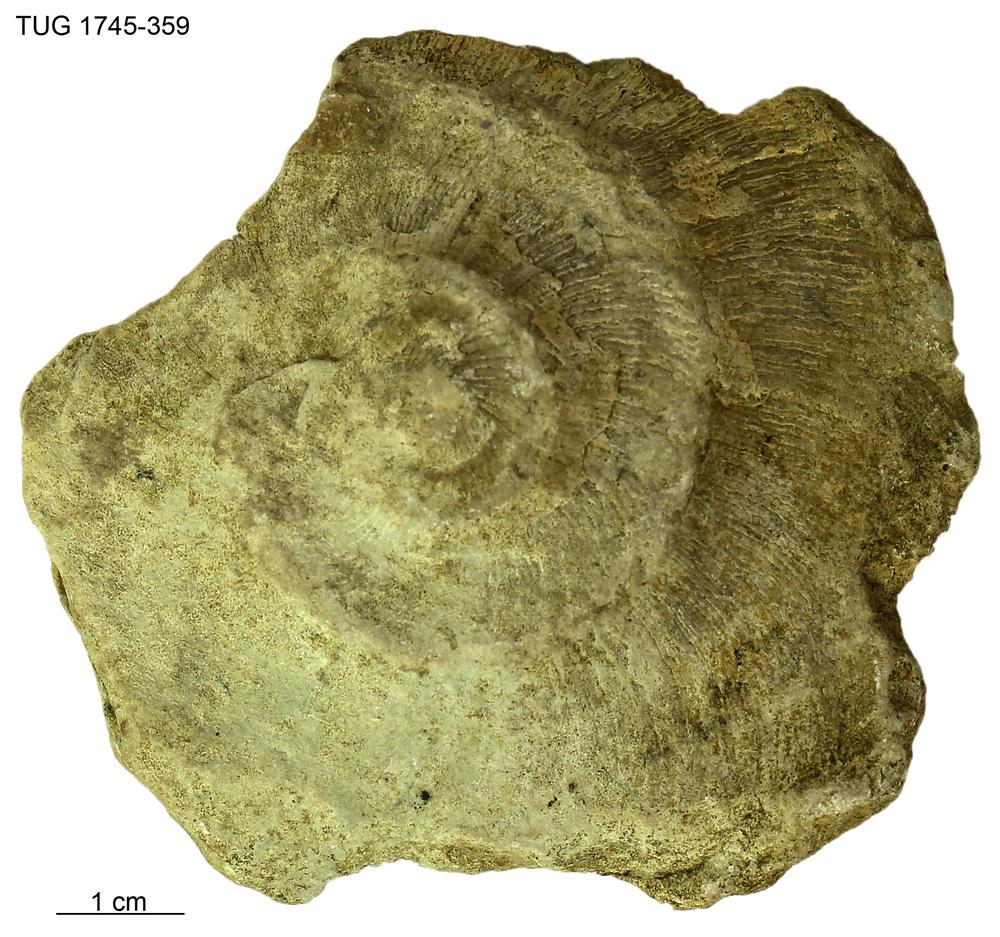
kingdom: Animalia
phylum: Mollusca
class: Cephalopoda
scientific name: Cephalopoda
